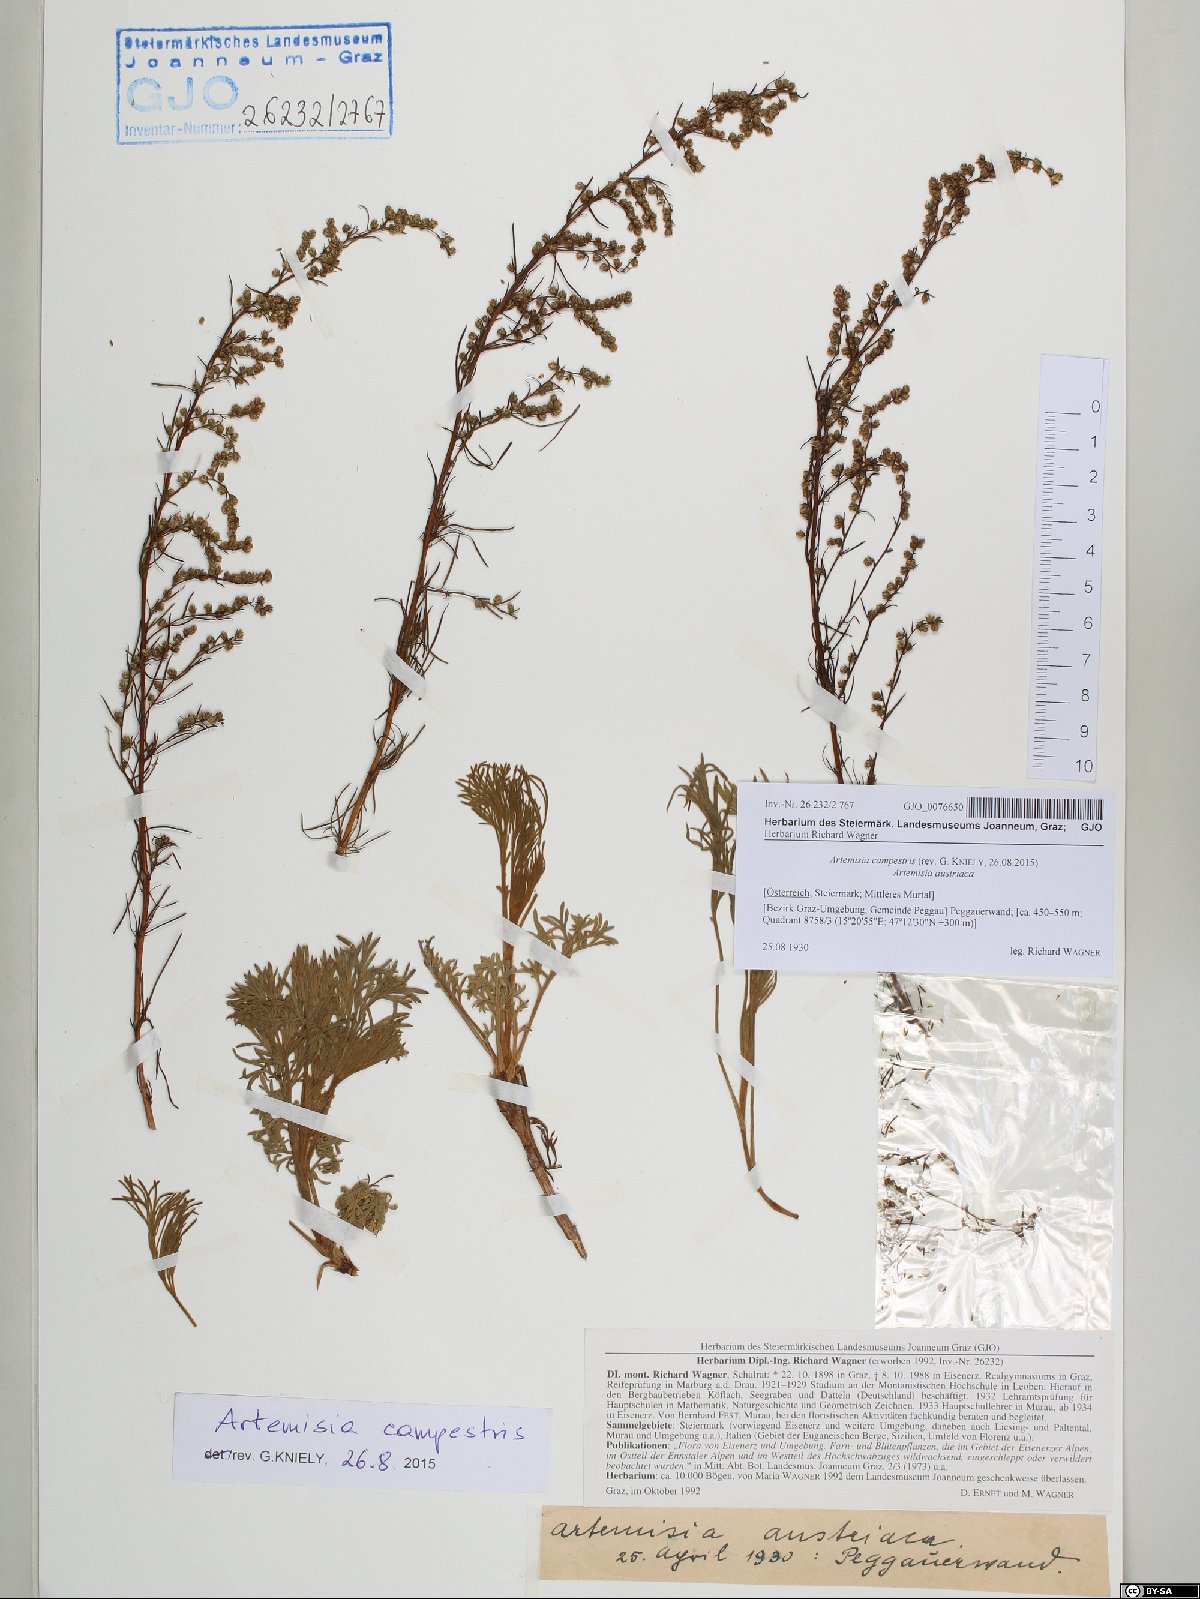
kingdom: Plantae
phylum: Tracheophyta
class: Magnoliopsida
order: Asterales
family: Asteraceae
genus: Artemisia
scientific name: Artemisia campestris
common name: Field wormwood
